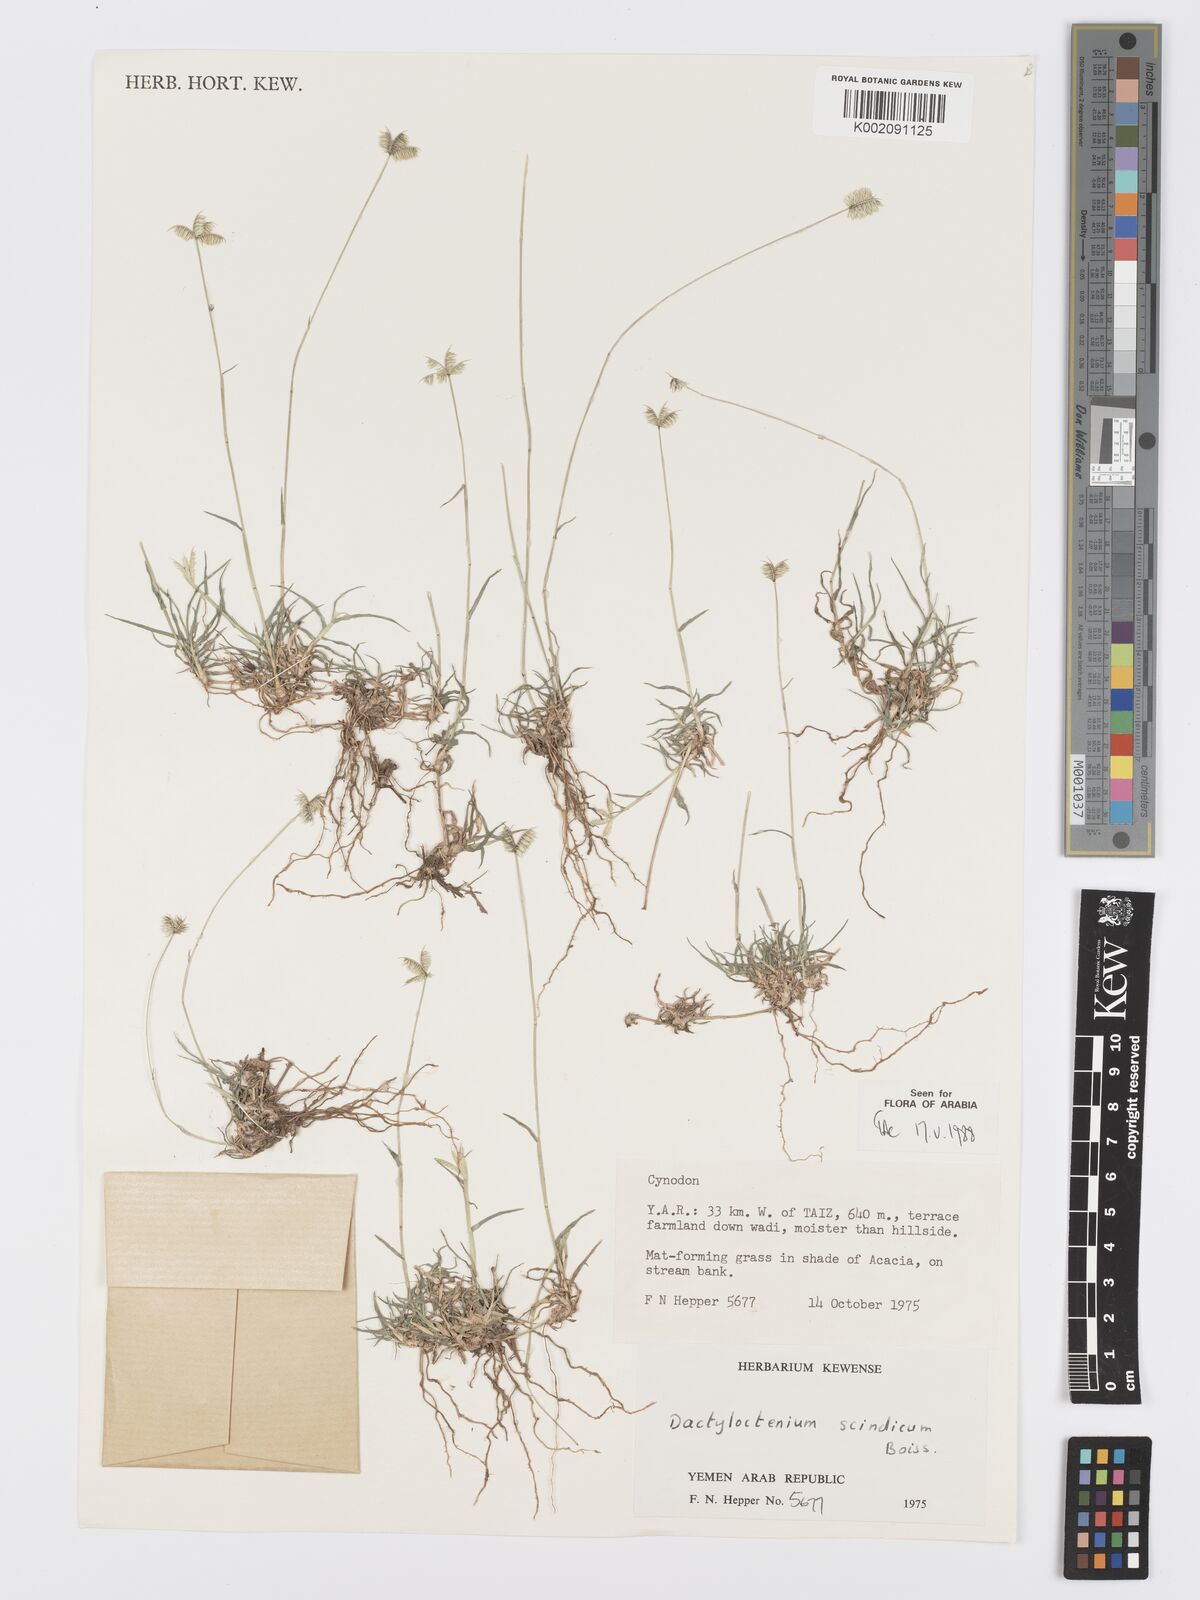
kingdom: Plantae
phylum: Tracheophyta
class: Liliopsida
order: Poales
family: Poaceae
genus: Dactyloctenium
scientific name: Dactyloctenium scindicum
